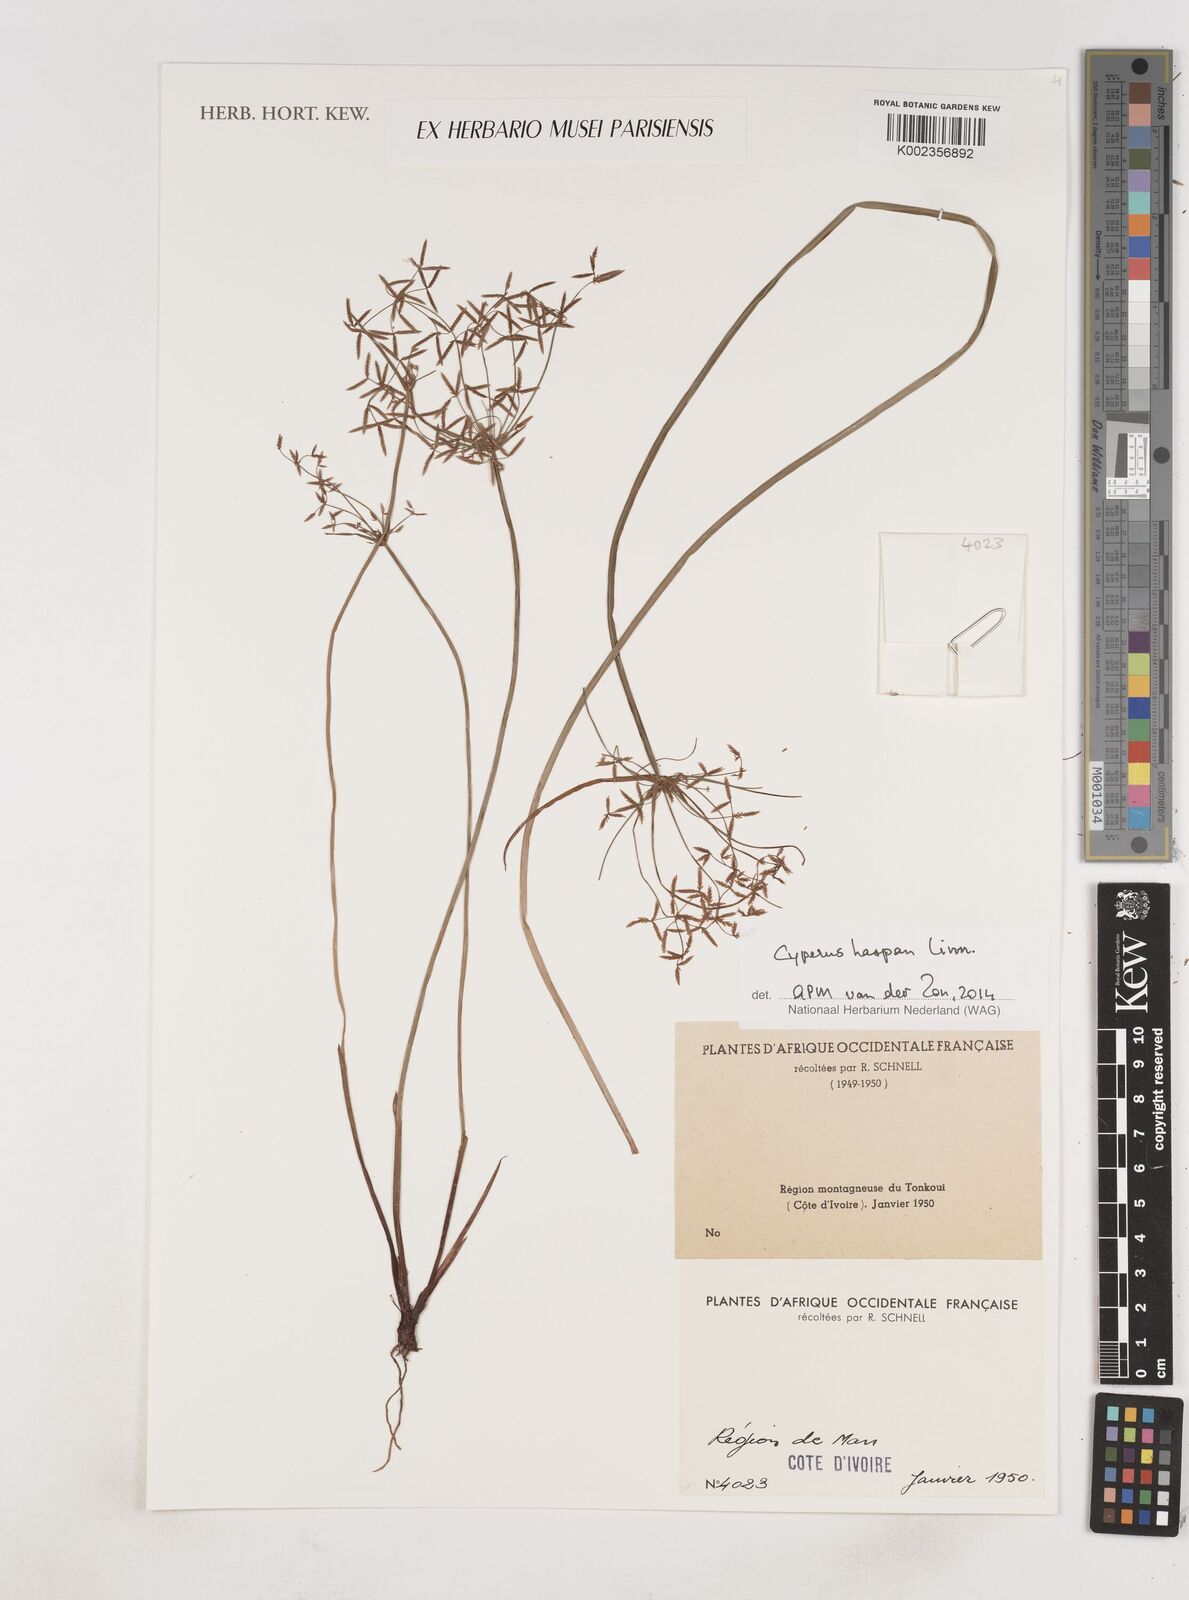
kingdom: Plantae
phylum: Tracheophyta
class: Liliopsida
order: Poales
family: Cyperaceae
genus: Cyperus
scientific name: Cyperus haspan
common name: Haspan flatsedge
